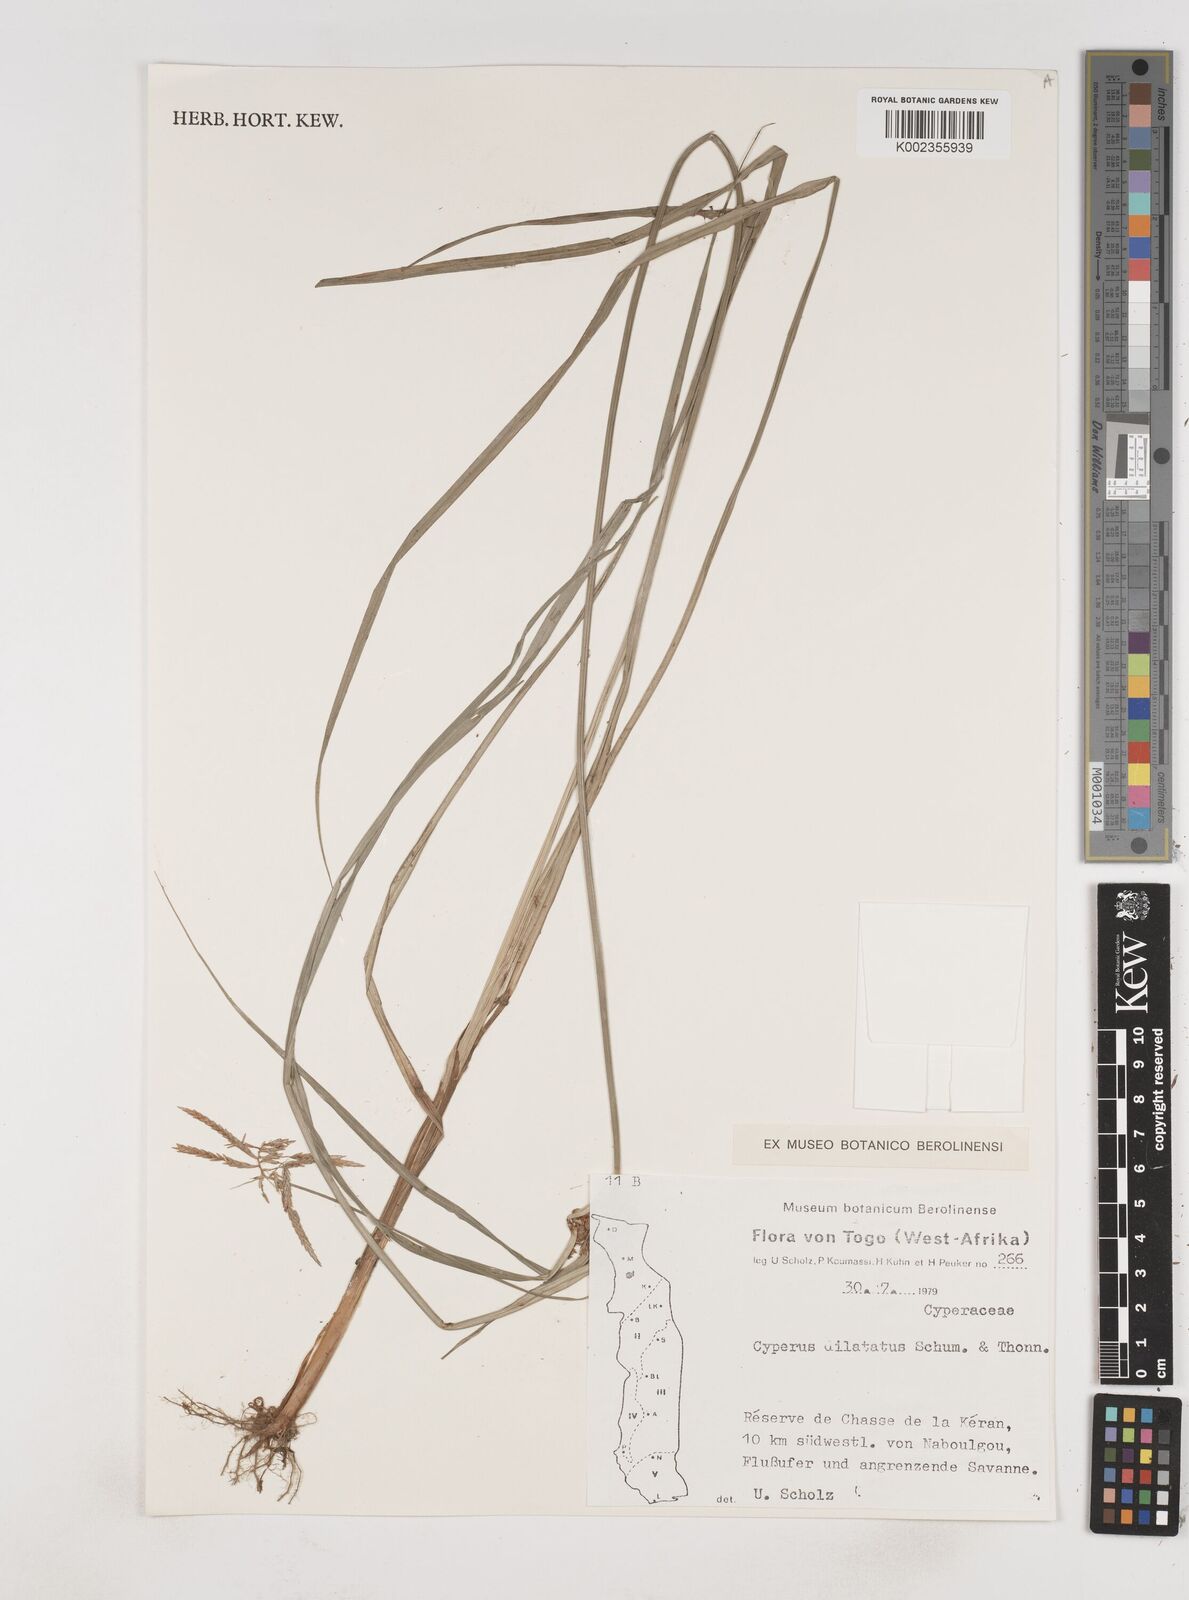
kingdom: Plantae
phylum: Tracheophyta
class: Liliopsida
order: Poales
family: Cyperaceae
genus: Cyperus
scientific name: Cyperus dilatatus
